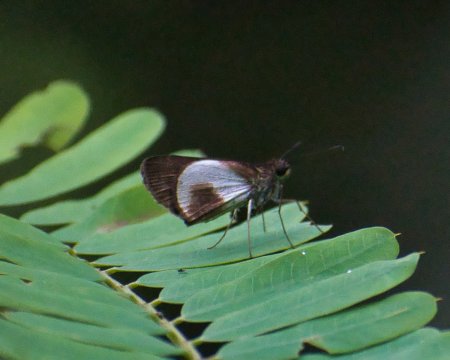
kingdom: Animalia
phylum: Arthropoda
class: Insecta
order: Lepidoptera
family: Hesperiidae
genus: Mnestheus
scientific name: Mnestheus ittona
